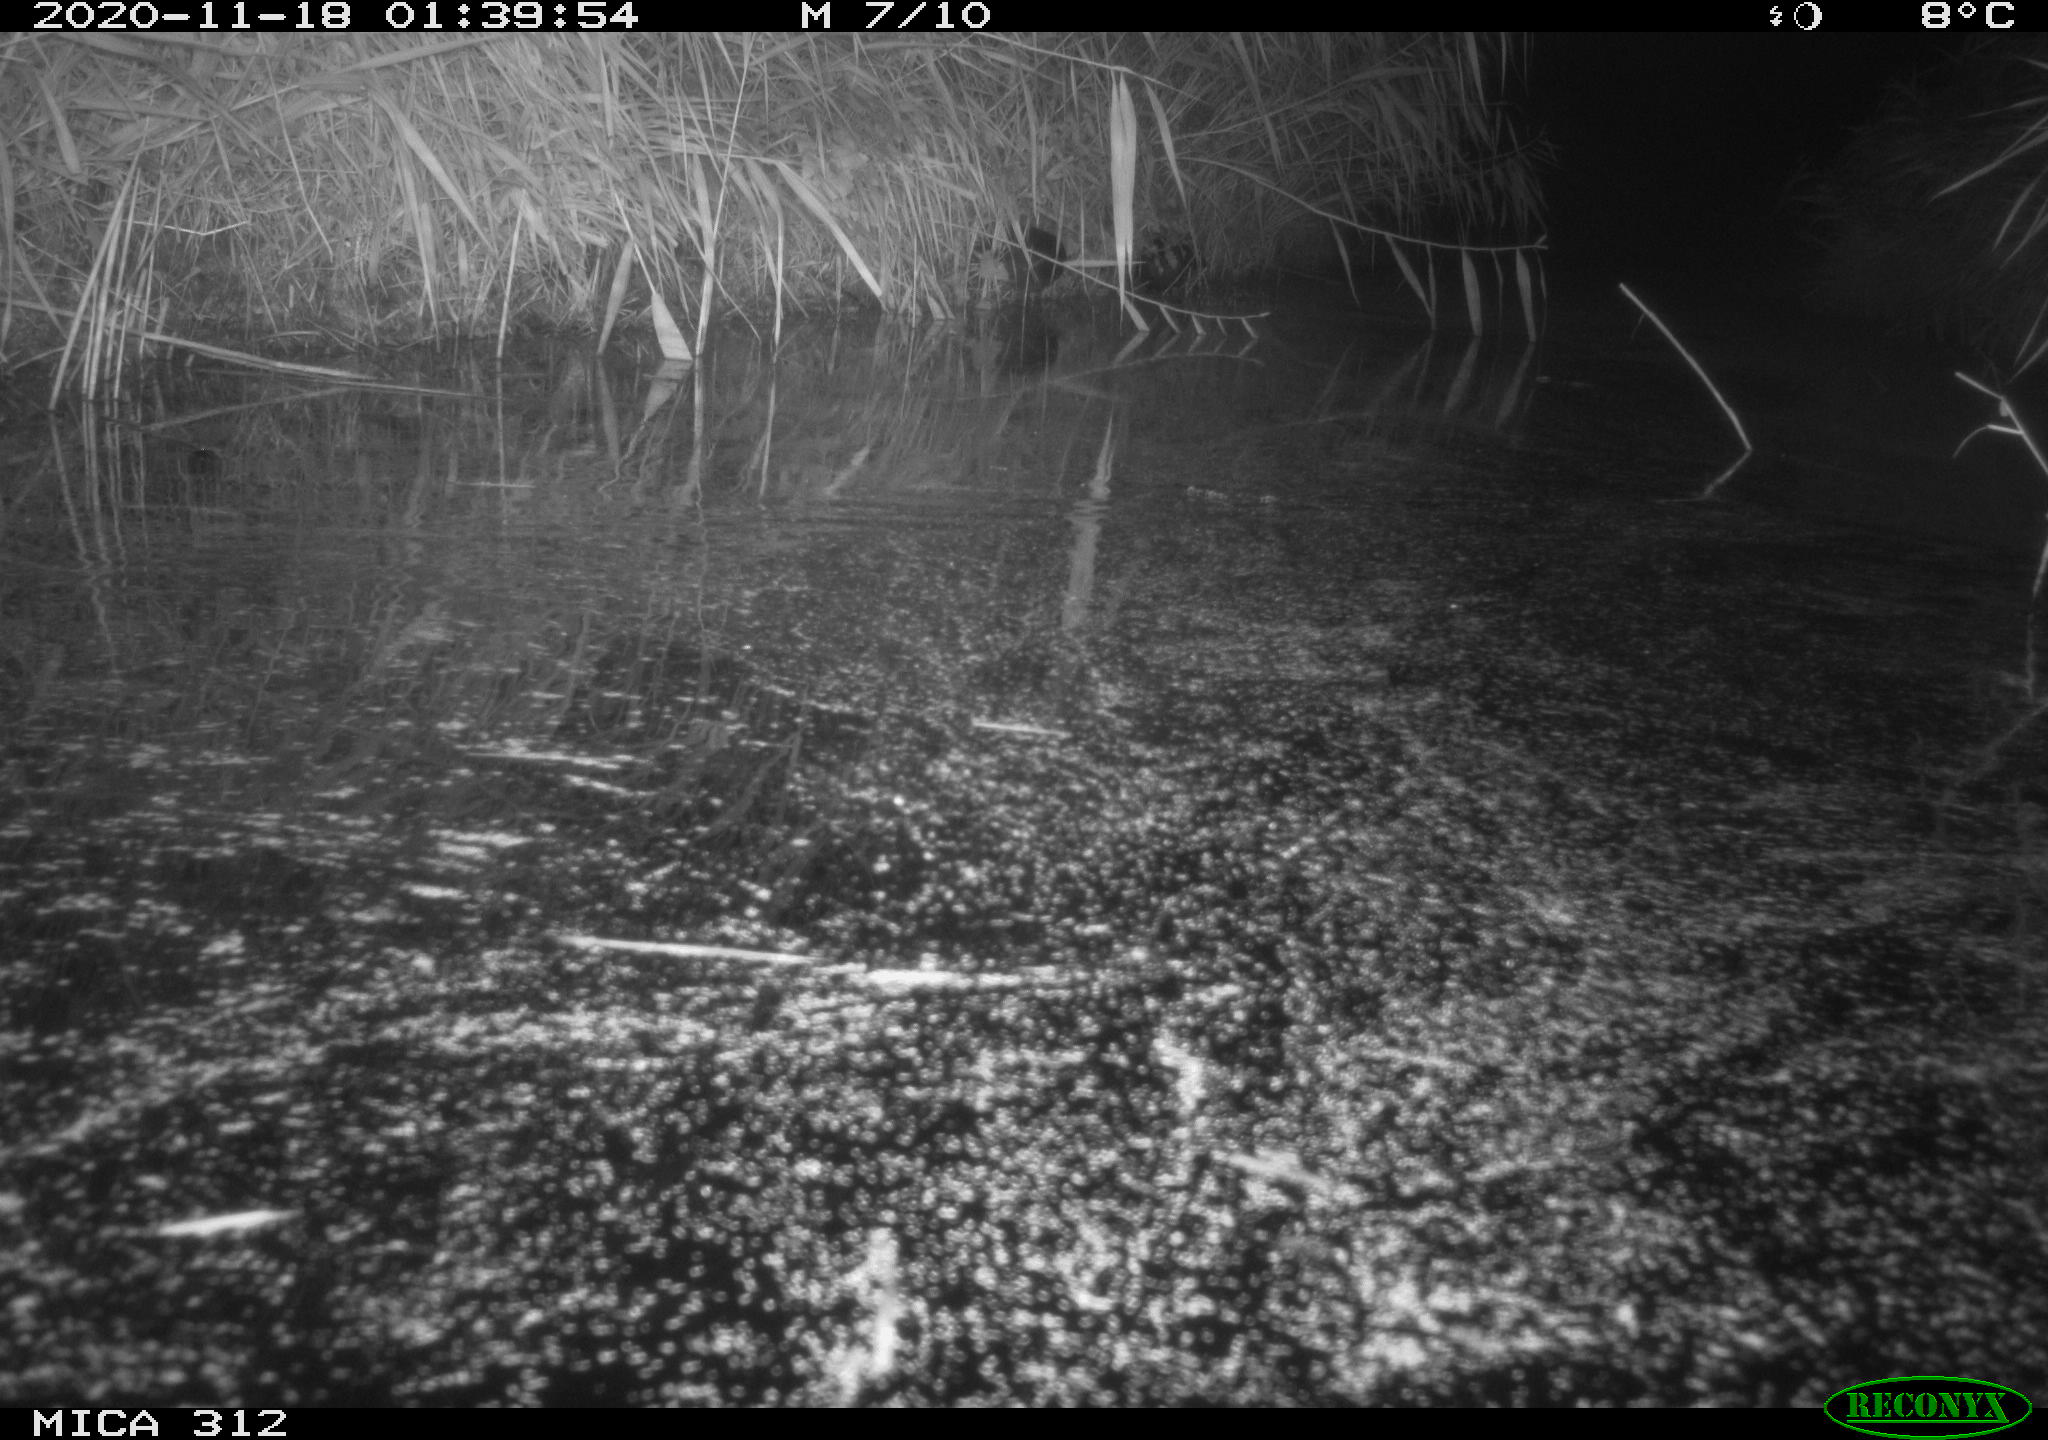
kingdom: Animalia
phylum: Chordata
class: Mammalia
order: Rodentia
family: Muridae
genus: Rattus
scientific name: Rattus norvegicus
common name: Brown rat
